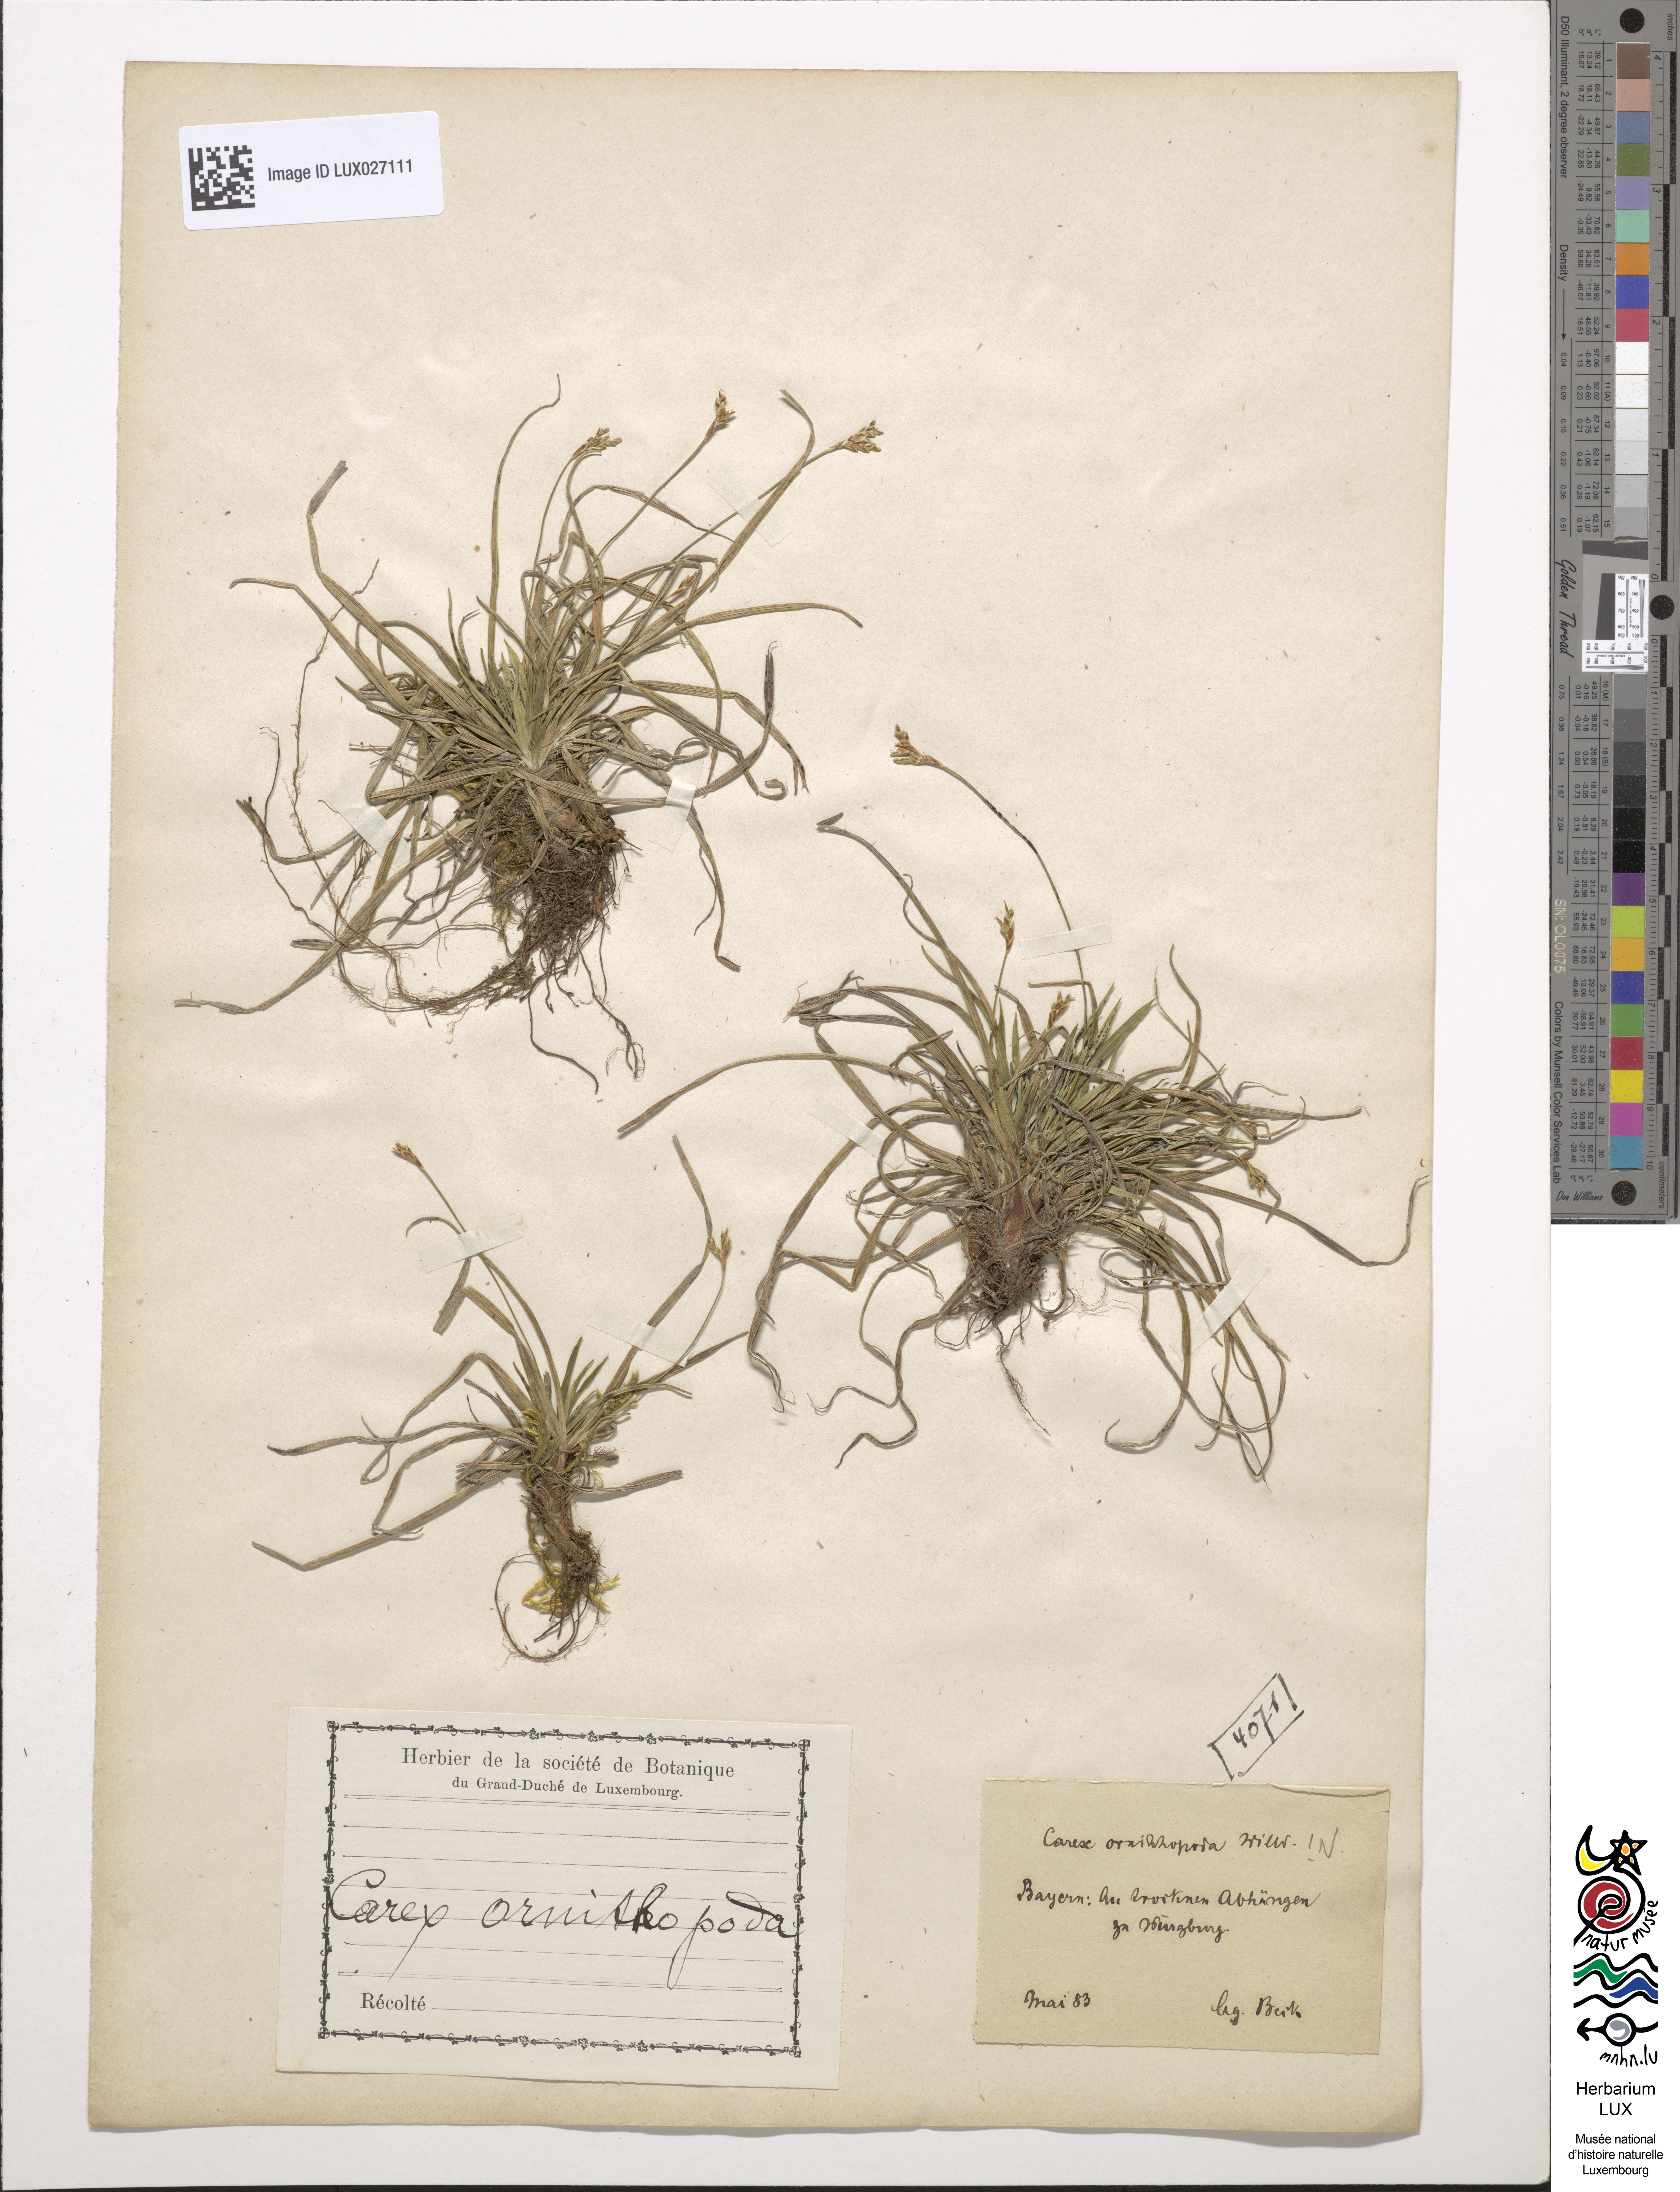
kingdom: Plantae
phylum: Tracheophyta
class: Liliopsida
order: Poales
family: Cyperaceae
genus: Carex
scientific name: Carex ornithopoda
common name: Bird's-foot sedge
